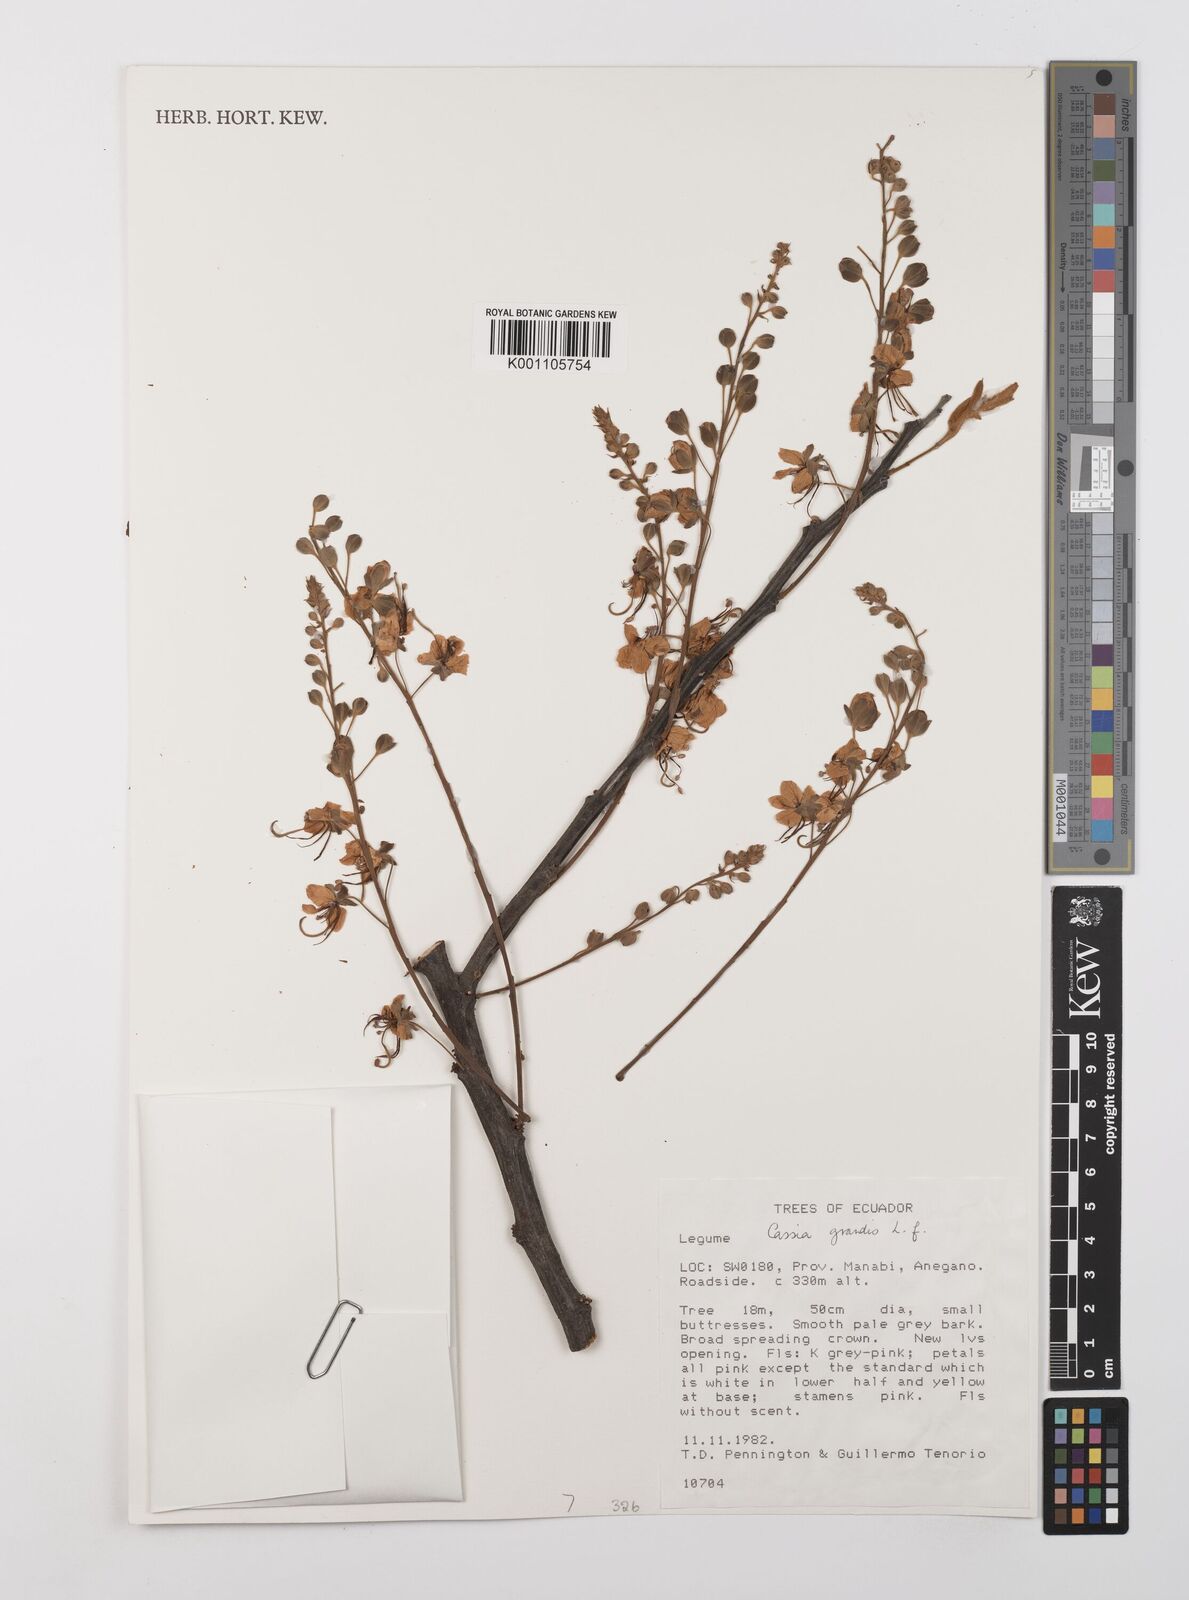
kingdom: Plantae
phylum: Tracheophyta
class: Magnoliopsida
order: Fabales
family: Fabaceae
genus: Cassia
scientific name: Cassia grandis
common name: Appleblossom cassia
